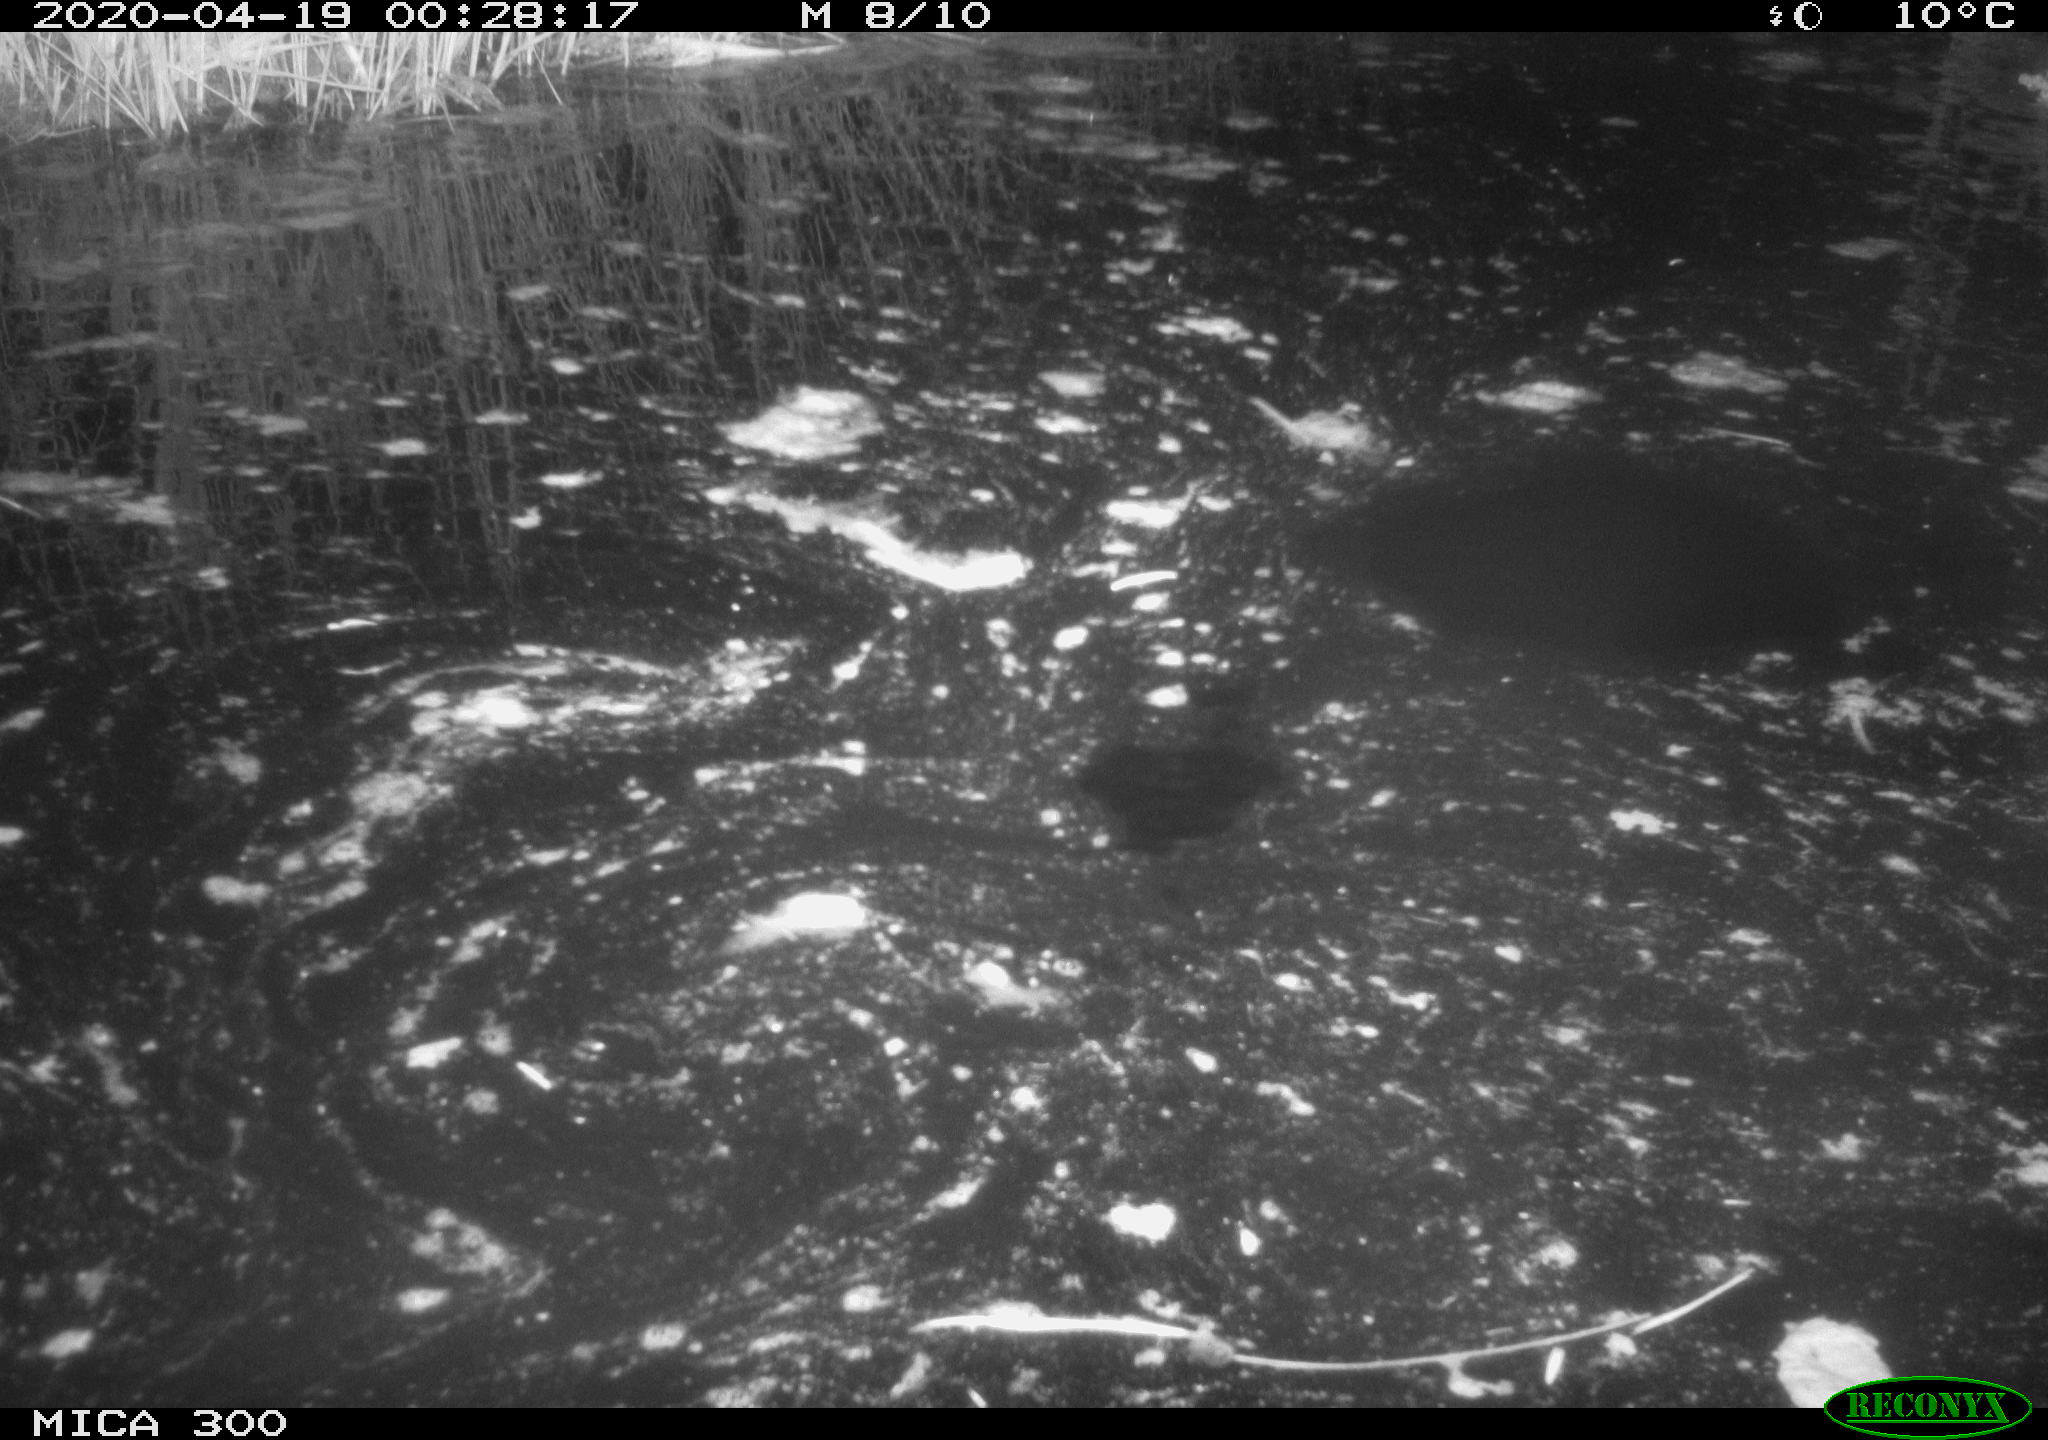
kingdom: Animalia
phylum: Chordata
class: Mammalia
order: Rodentia
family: Castoridae
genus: Castor
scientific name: Castor fiber
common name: Eurasian beaver
